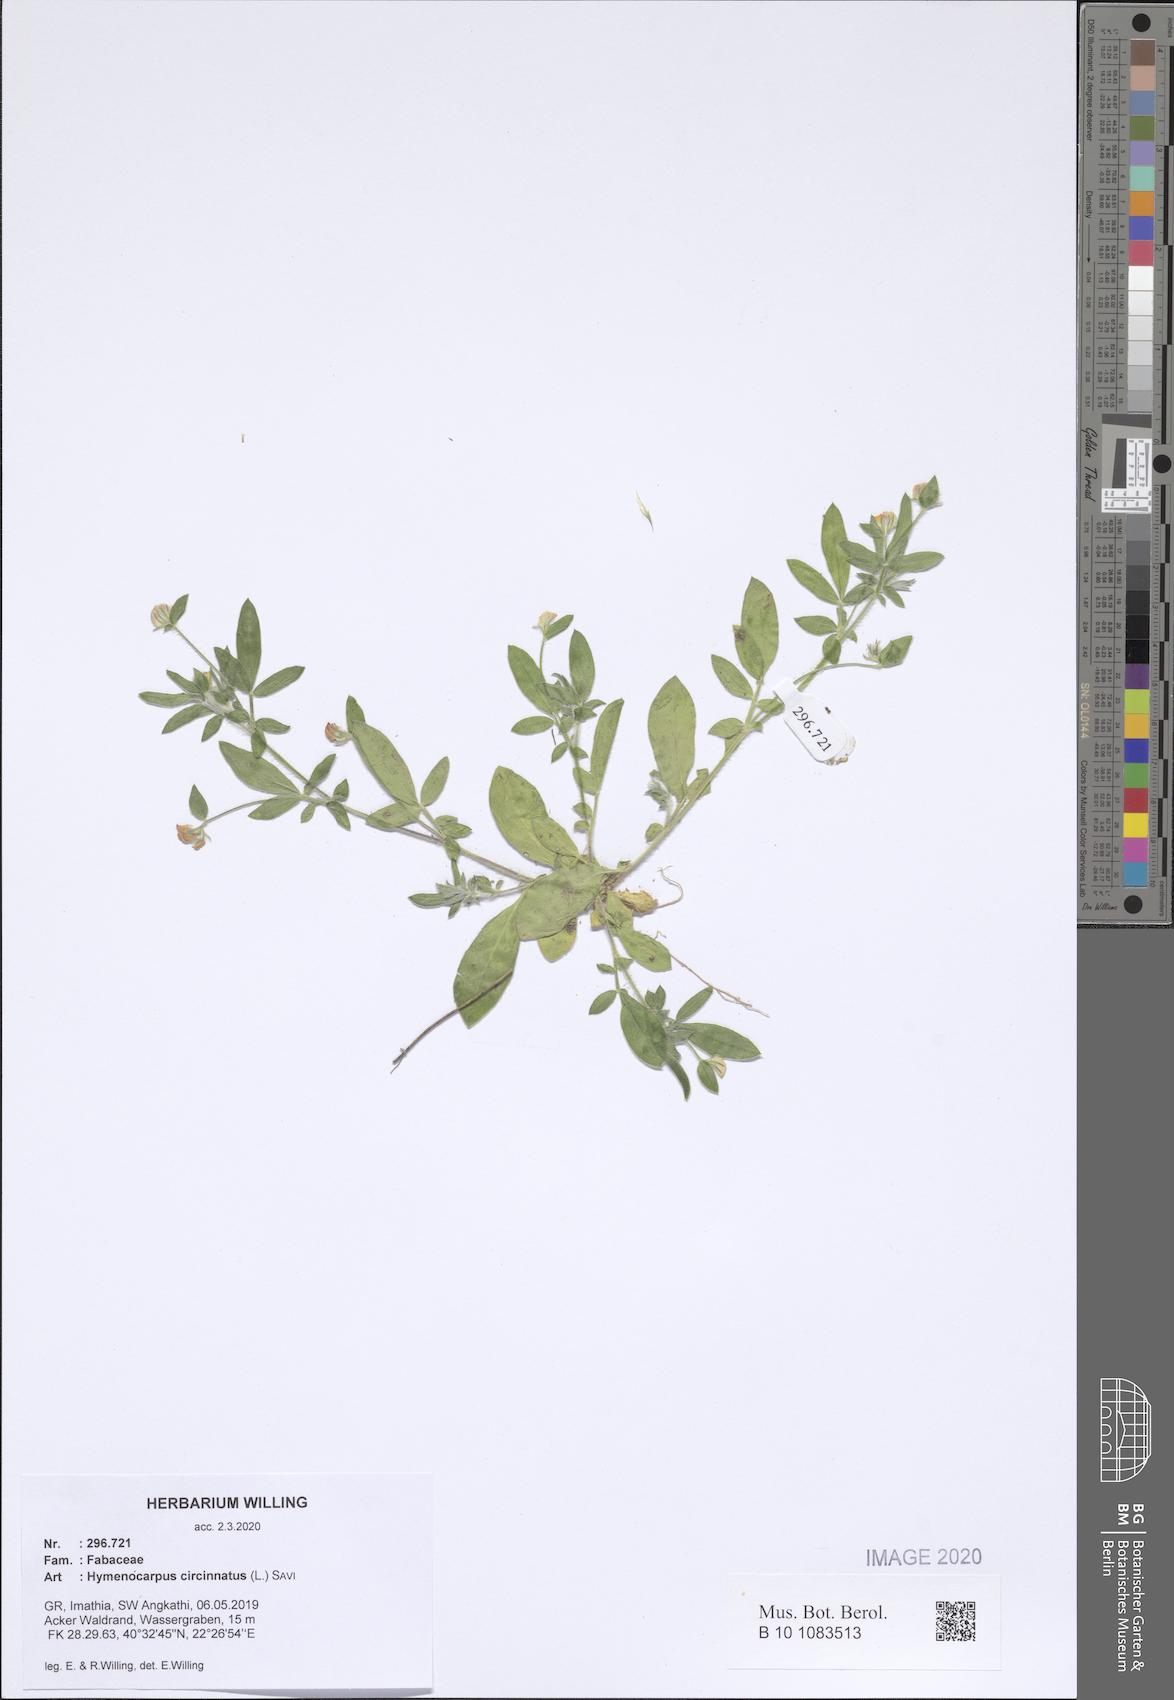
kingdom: Plantae
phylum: Tracheophyta
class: Magnoliopsida
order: Fabales
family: Fabaceae
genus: Anthyllis
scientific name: Anthyllis circinnata
